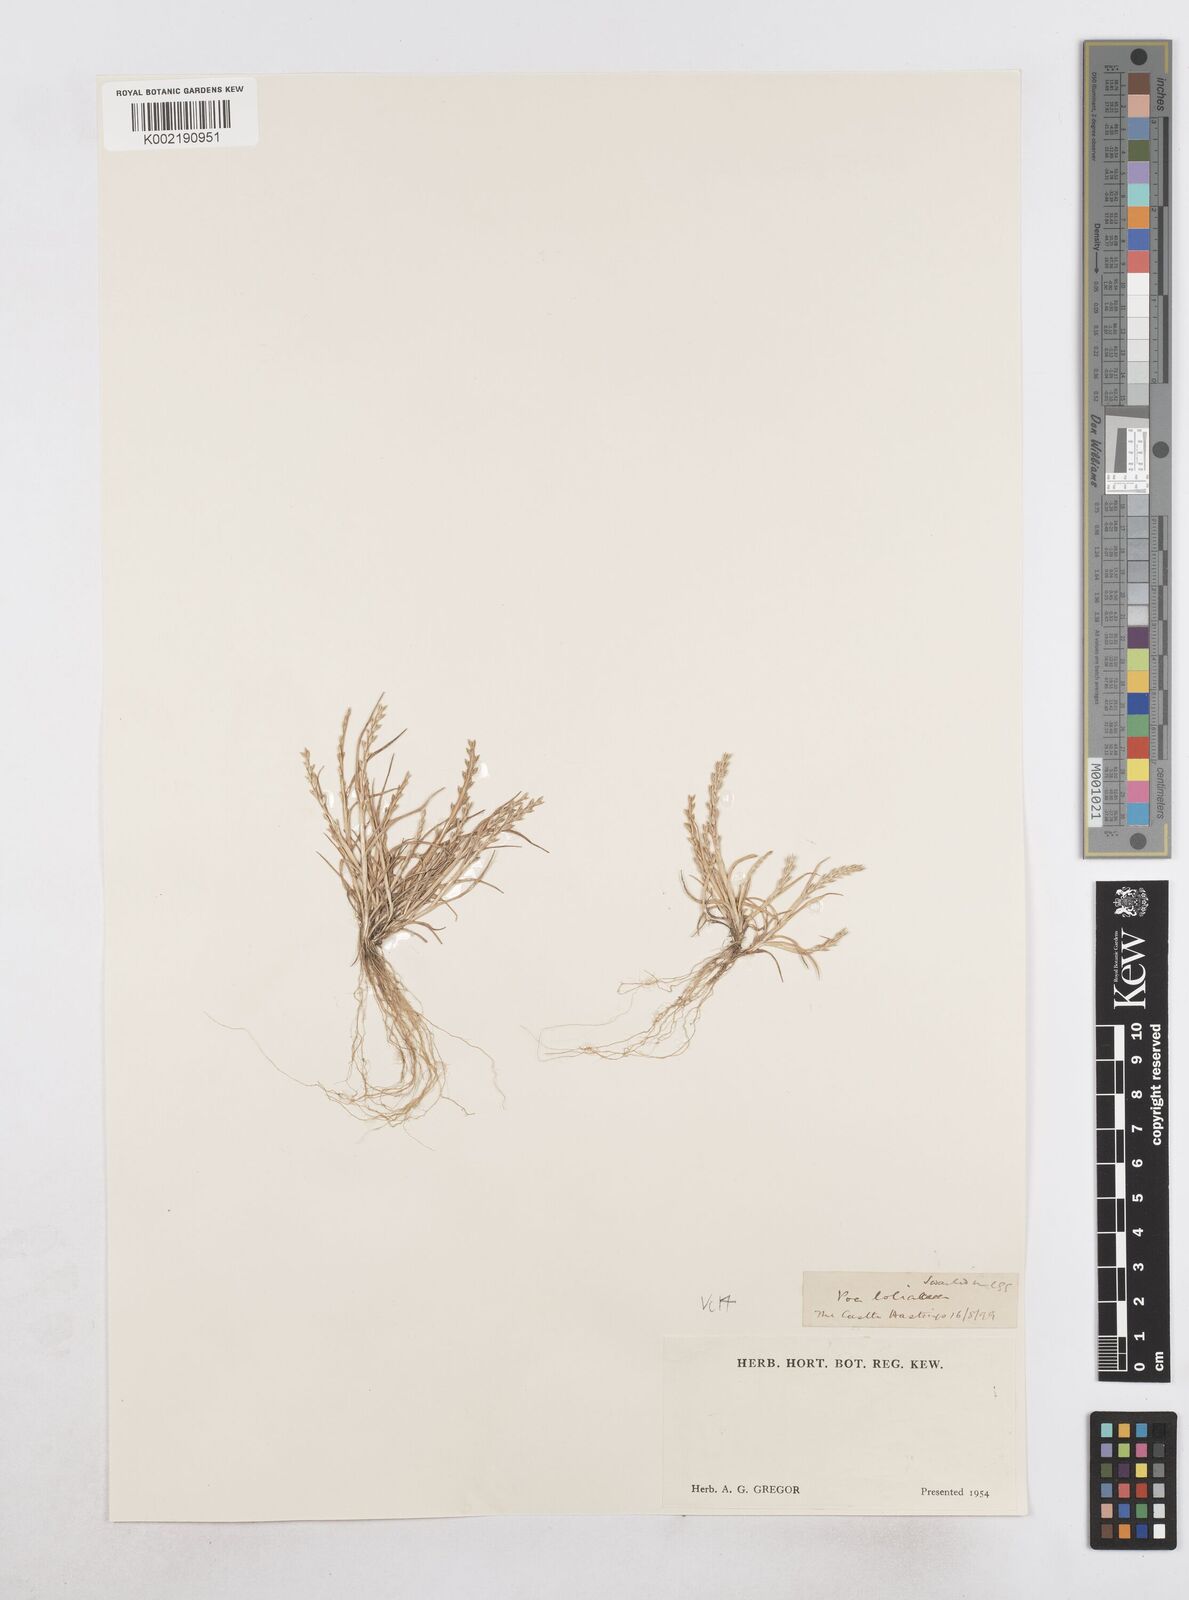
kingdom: Plantae
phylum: Tracheophyta
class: Liliopsida
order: Poales
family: Poaceae
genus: Catapodium
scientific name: Catapodium marinum
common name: Sea fern-grass
